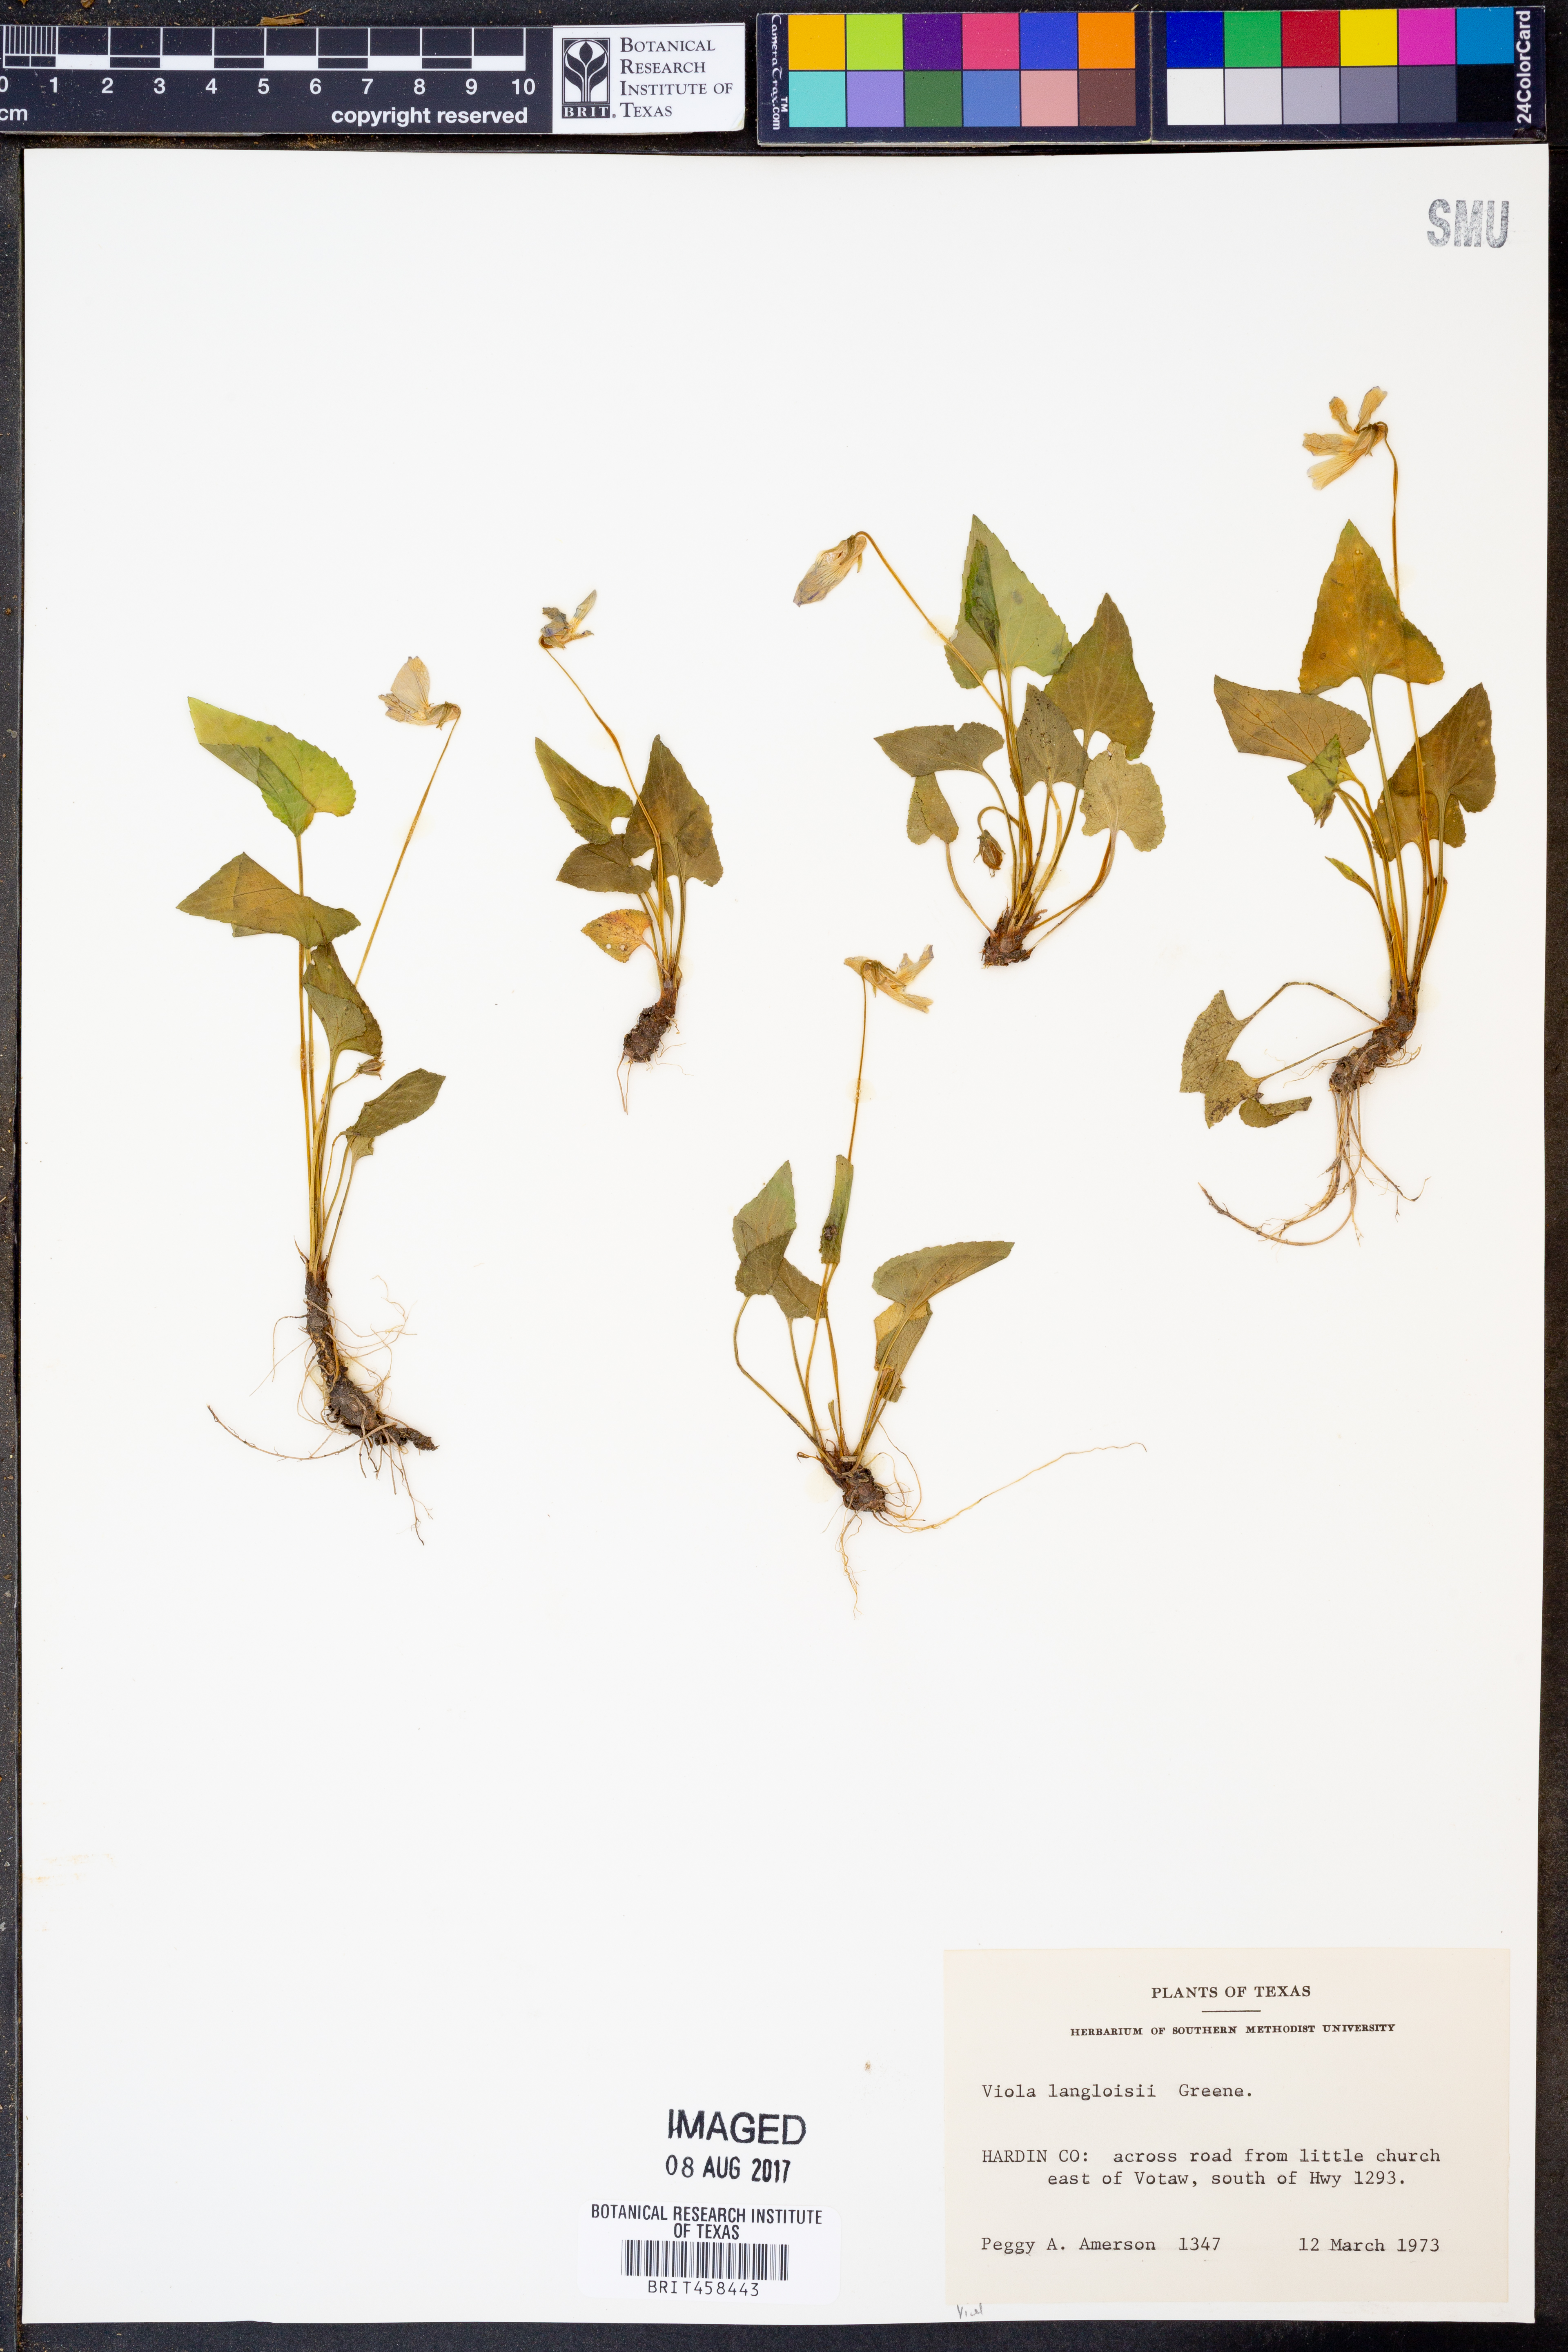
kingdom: Plantae
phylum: Tracheophyta
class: Magnoliopsida
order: Malpighiales
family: Violaceae
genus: Viola
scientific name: Viola langloisii
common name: Langlois' violet
